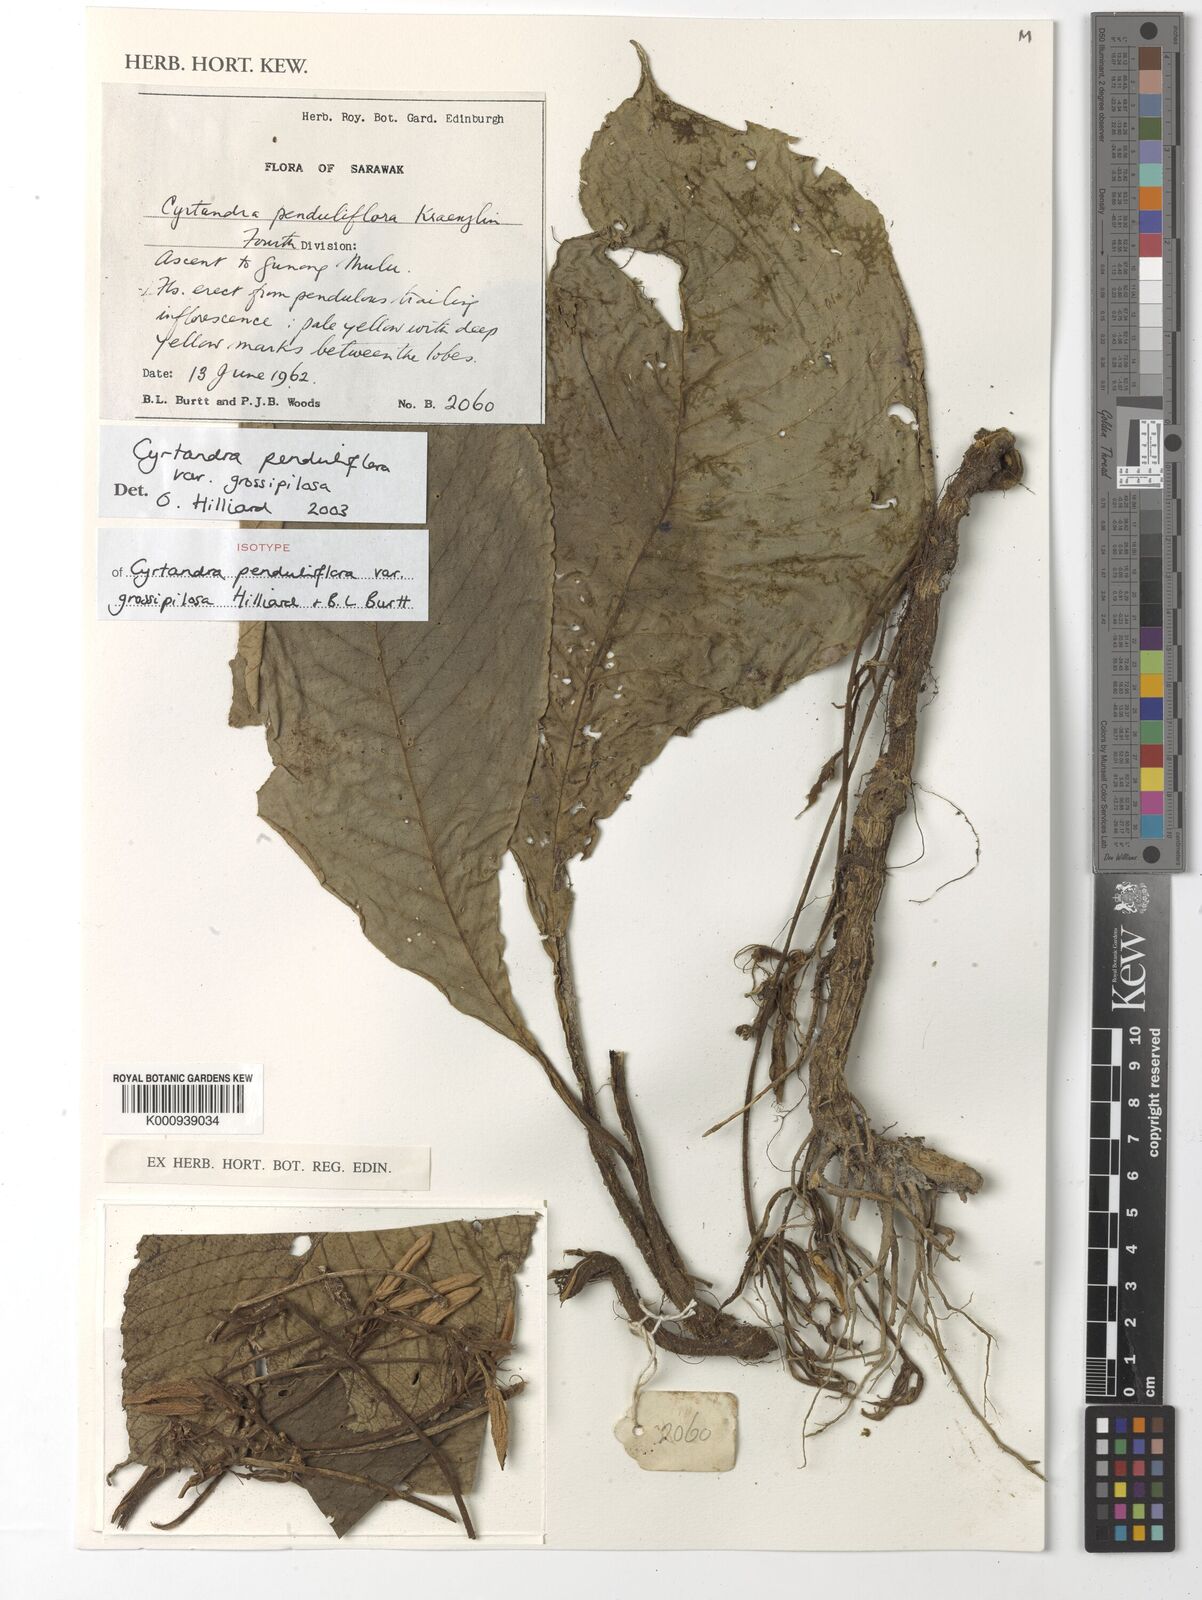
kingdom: Plantae
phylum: Tracheophyta
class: Magnoliopsida
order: Lamiales
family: Gesneriaceae
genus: Cyrtandra
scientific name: Cyrtandra penduliflora
